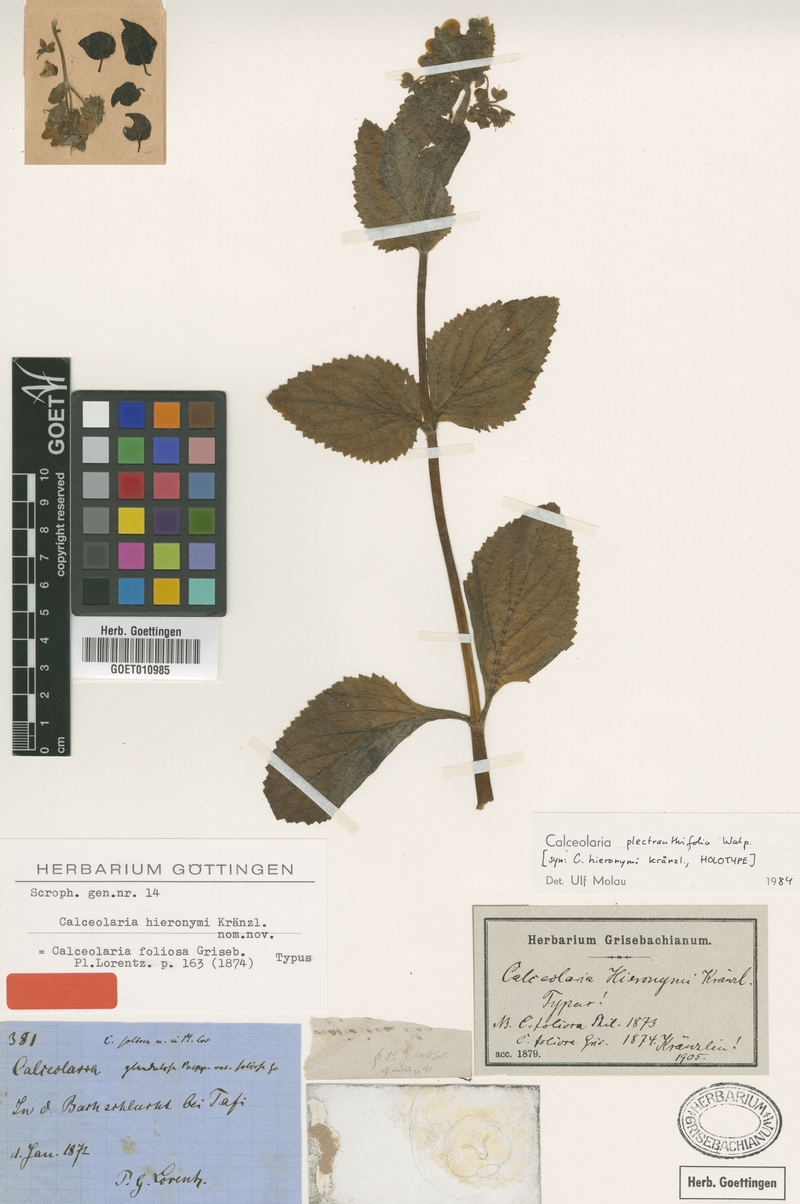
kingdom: Plantae
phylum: Tracheophyta
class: Magnoliopsida
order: Lamiales
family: Calceolariaceae
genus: Calceolaria
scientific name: Calceolaria plectranthifolia
